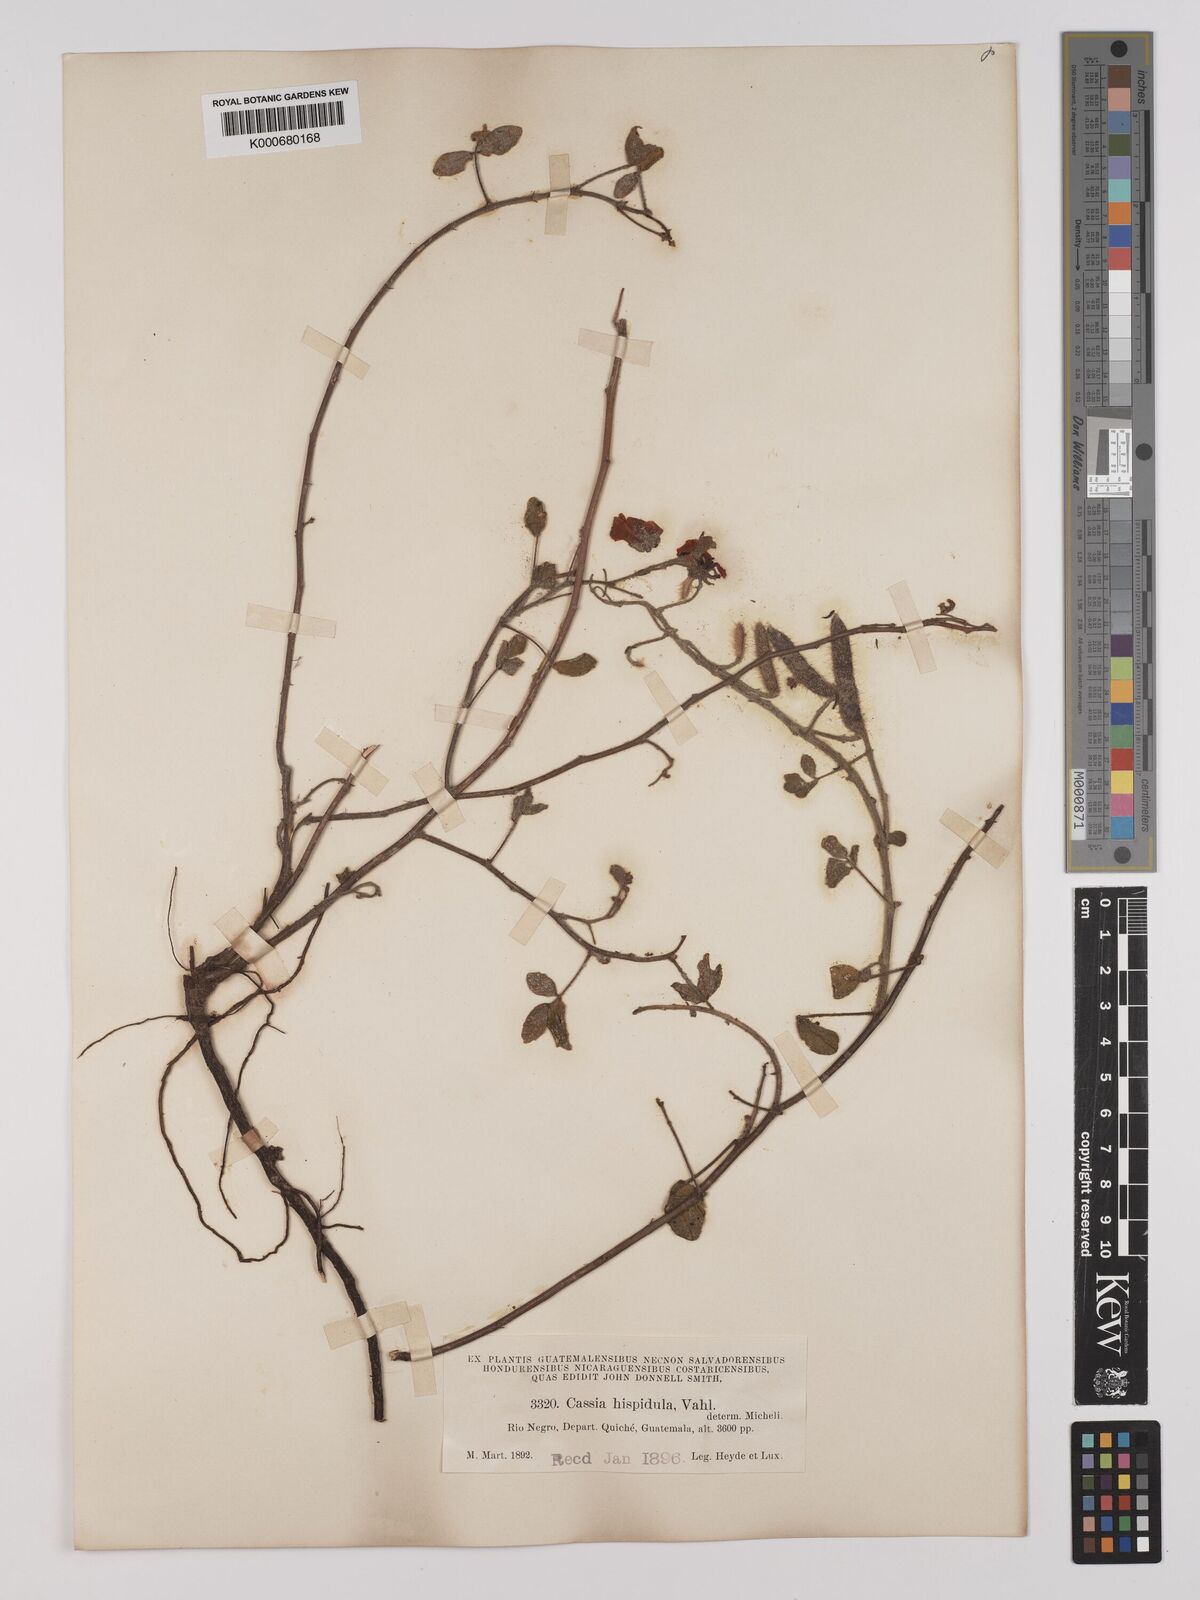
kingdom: Plantae
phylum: Tracheophyta
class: Magnoliopsida
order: Fabales
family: Fabaceae
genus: Chamaecrista
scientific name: Chamaecrista hispidula
